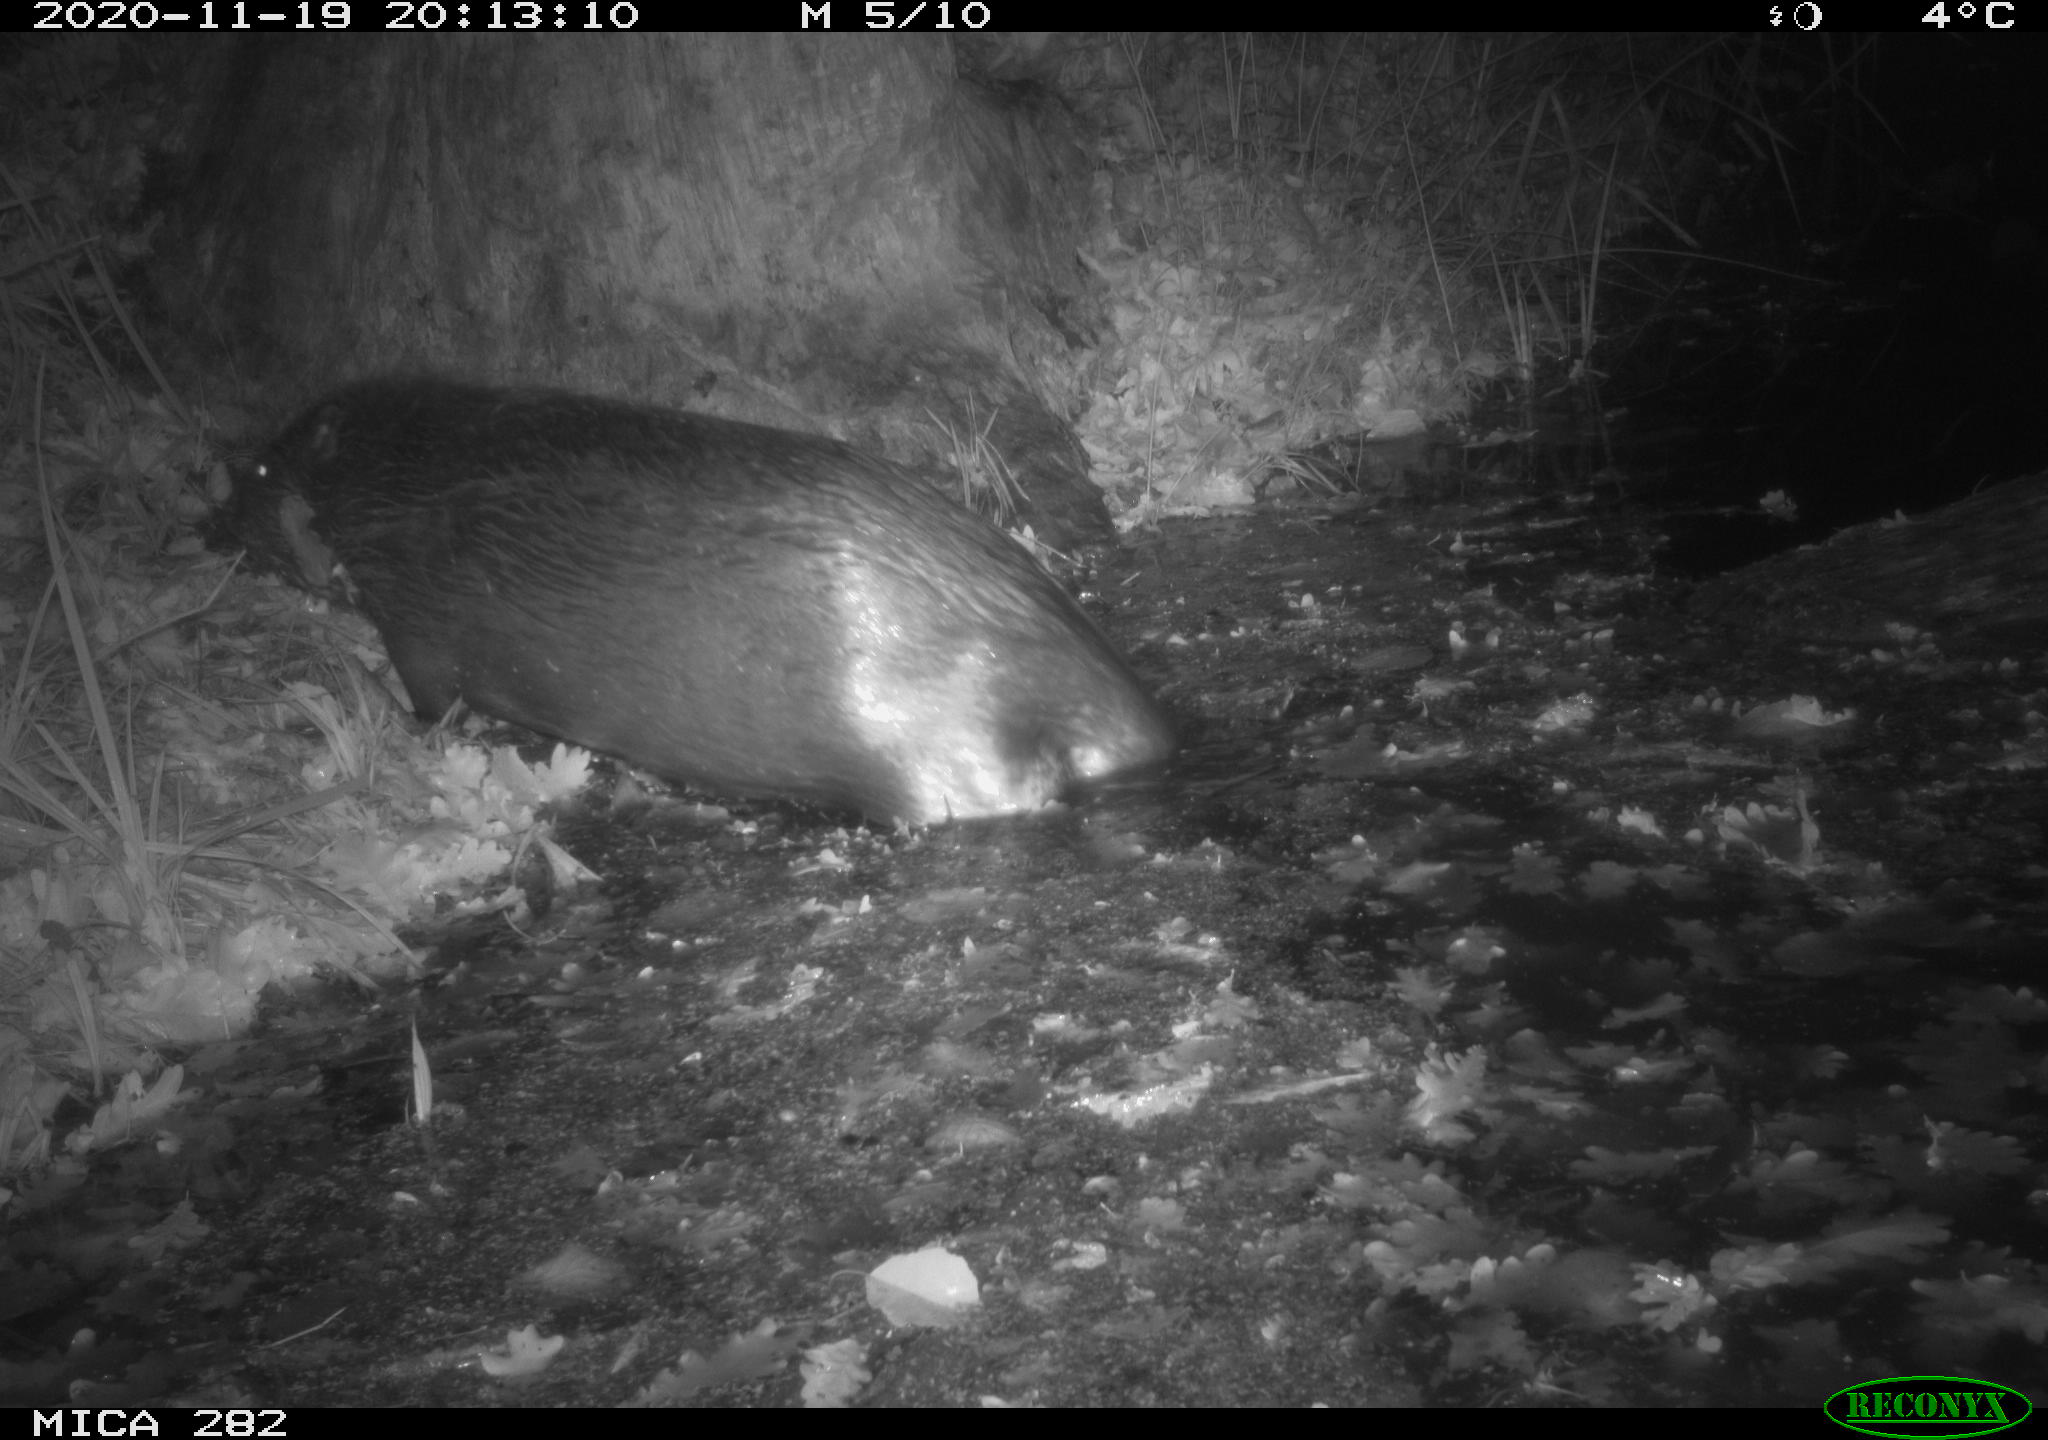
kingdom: Animalia
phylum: Chordata
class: Mammalia
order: Rodentia
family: Castoridae
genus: Castor
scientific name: Castor fiber
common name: Eurasian beaver
